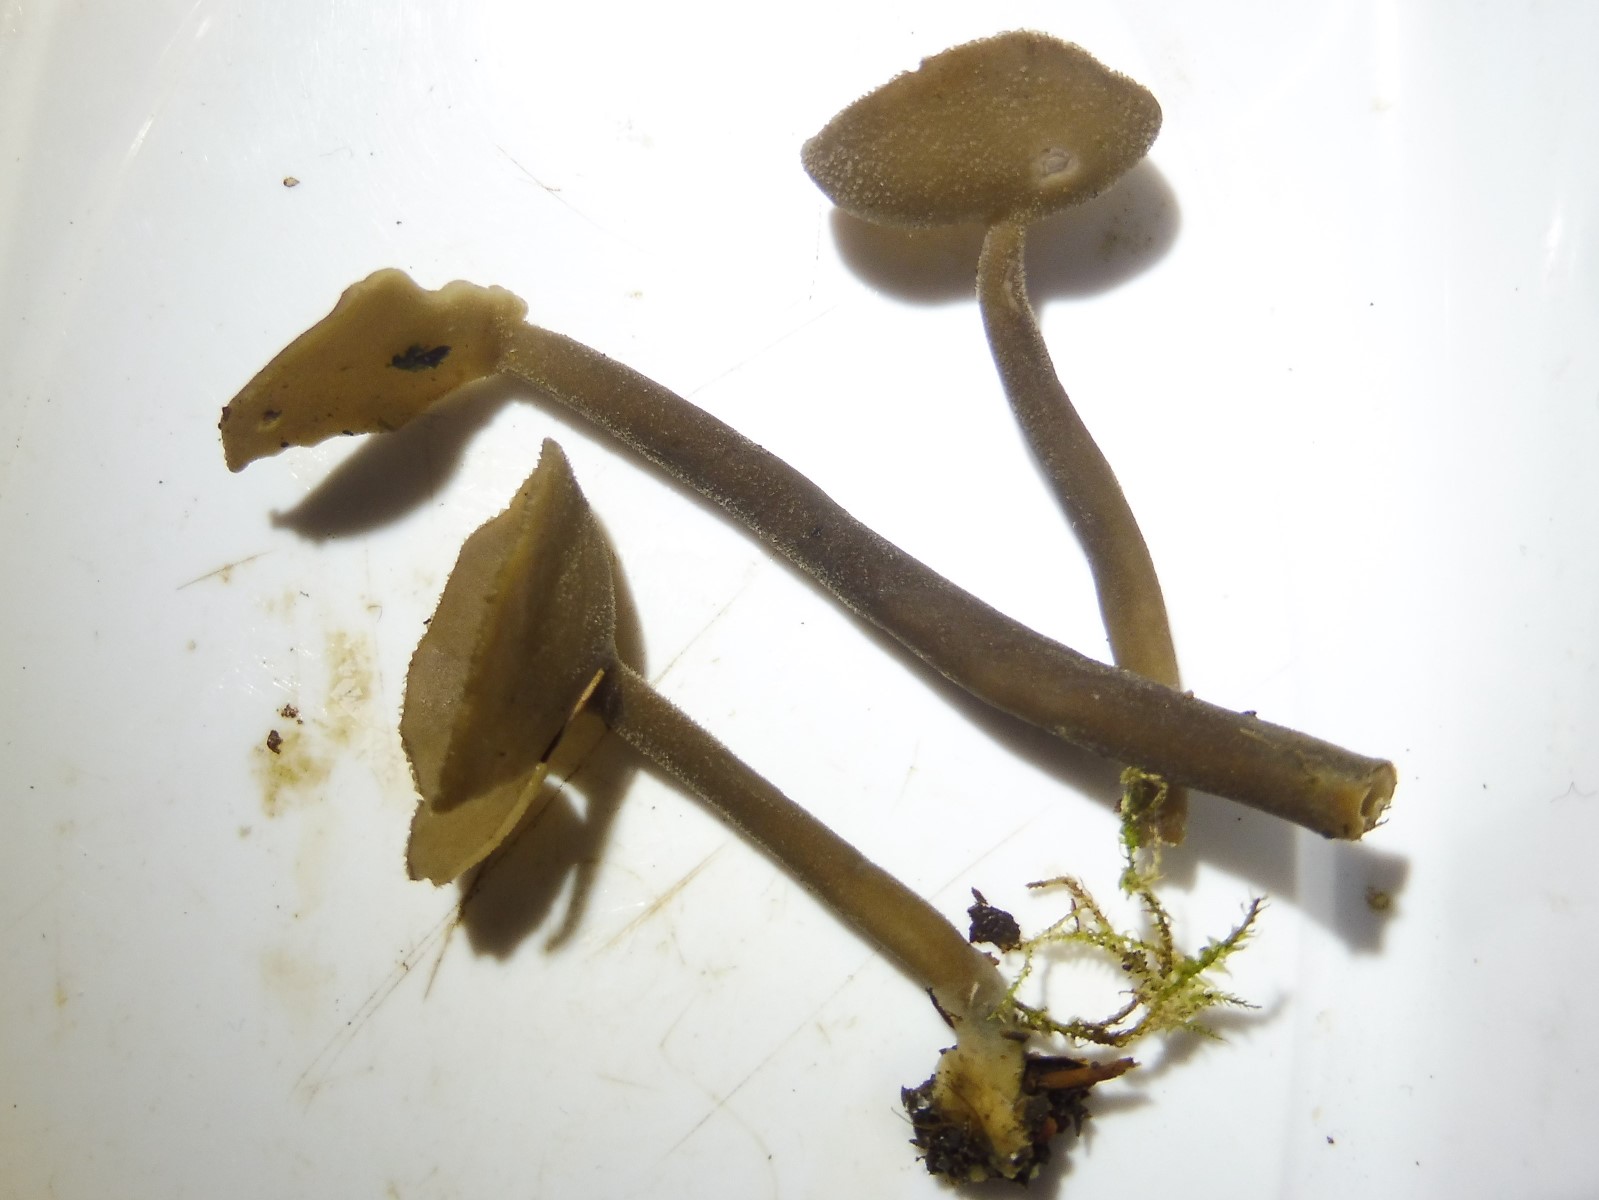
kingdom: Fungi
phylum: Ascomycota
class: Pezizomycetes
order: Pezizales
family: Helvellaceae
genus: Helvella
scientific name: Helvella macropus
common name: højstokket foldhat
